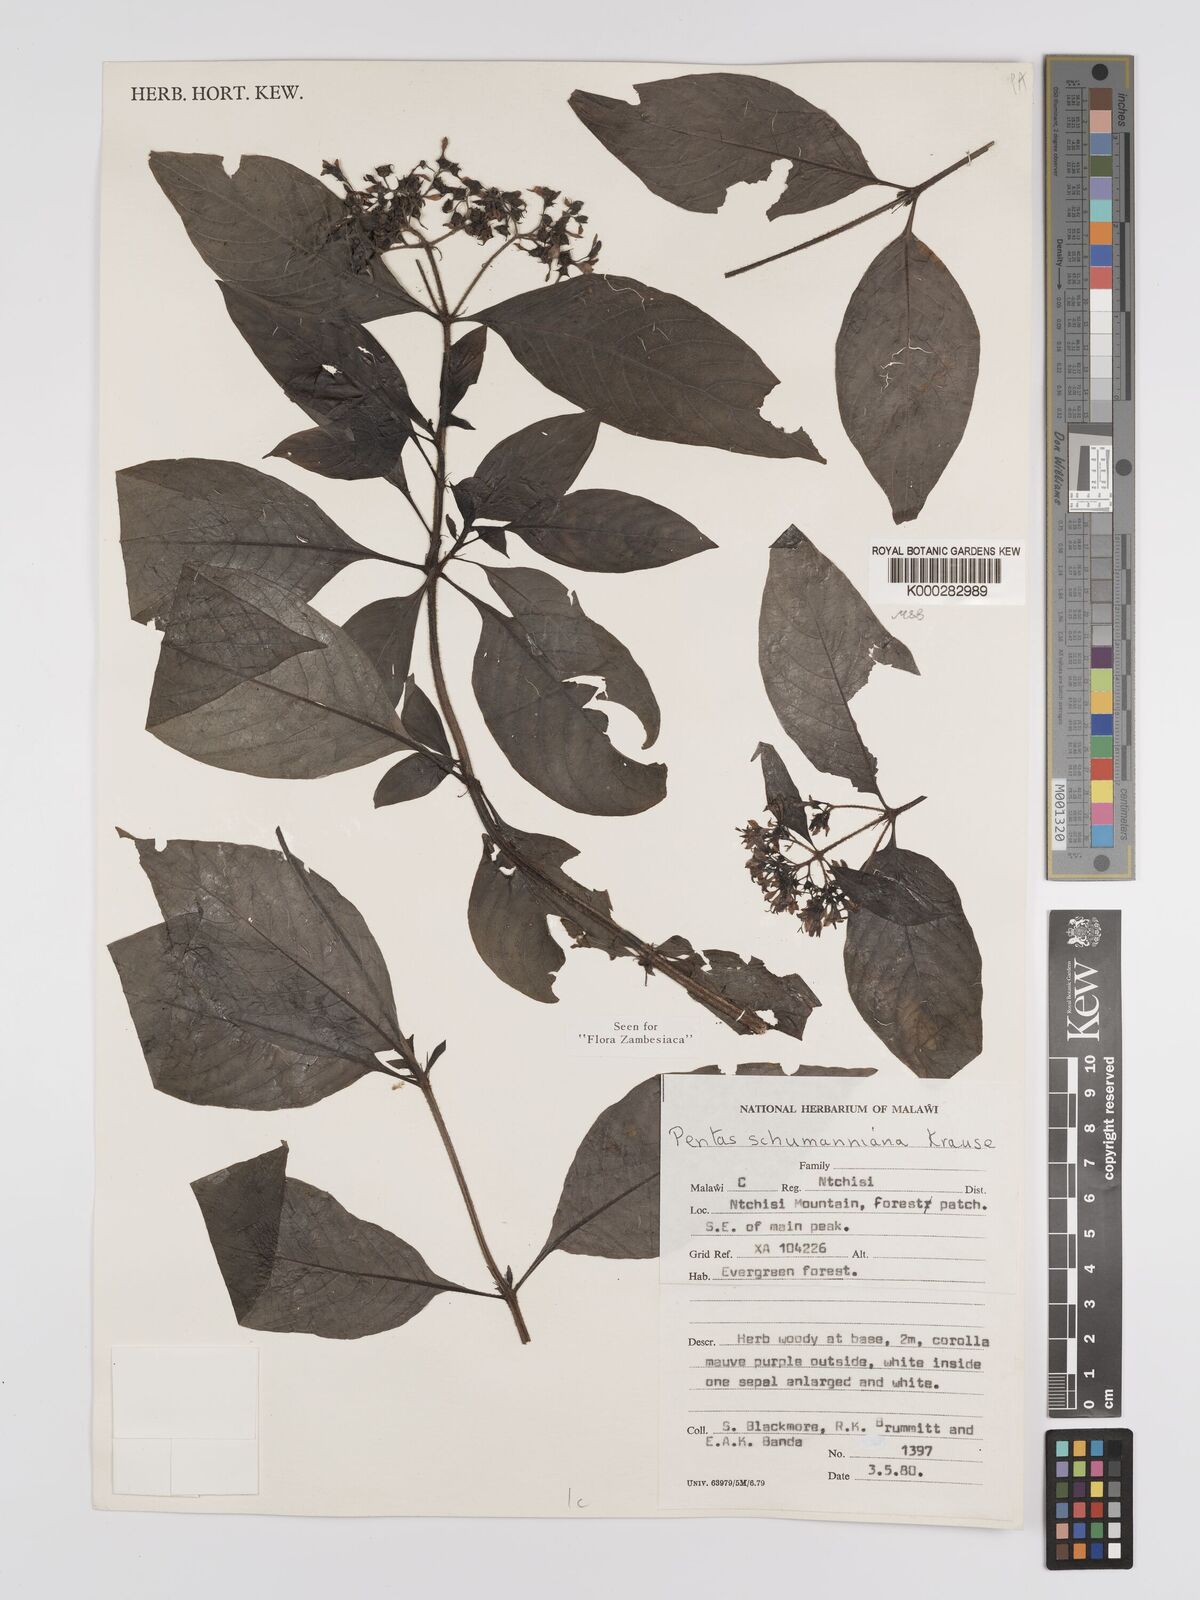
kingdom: Plantae
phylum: Tracheophyta
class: Magnoliopsida
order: Gentianales
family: Rubiaceae
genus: Phyllopentas
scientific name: Phyllopentas schumanniana
